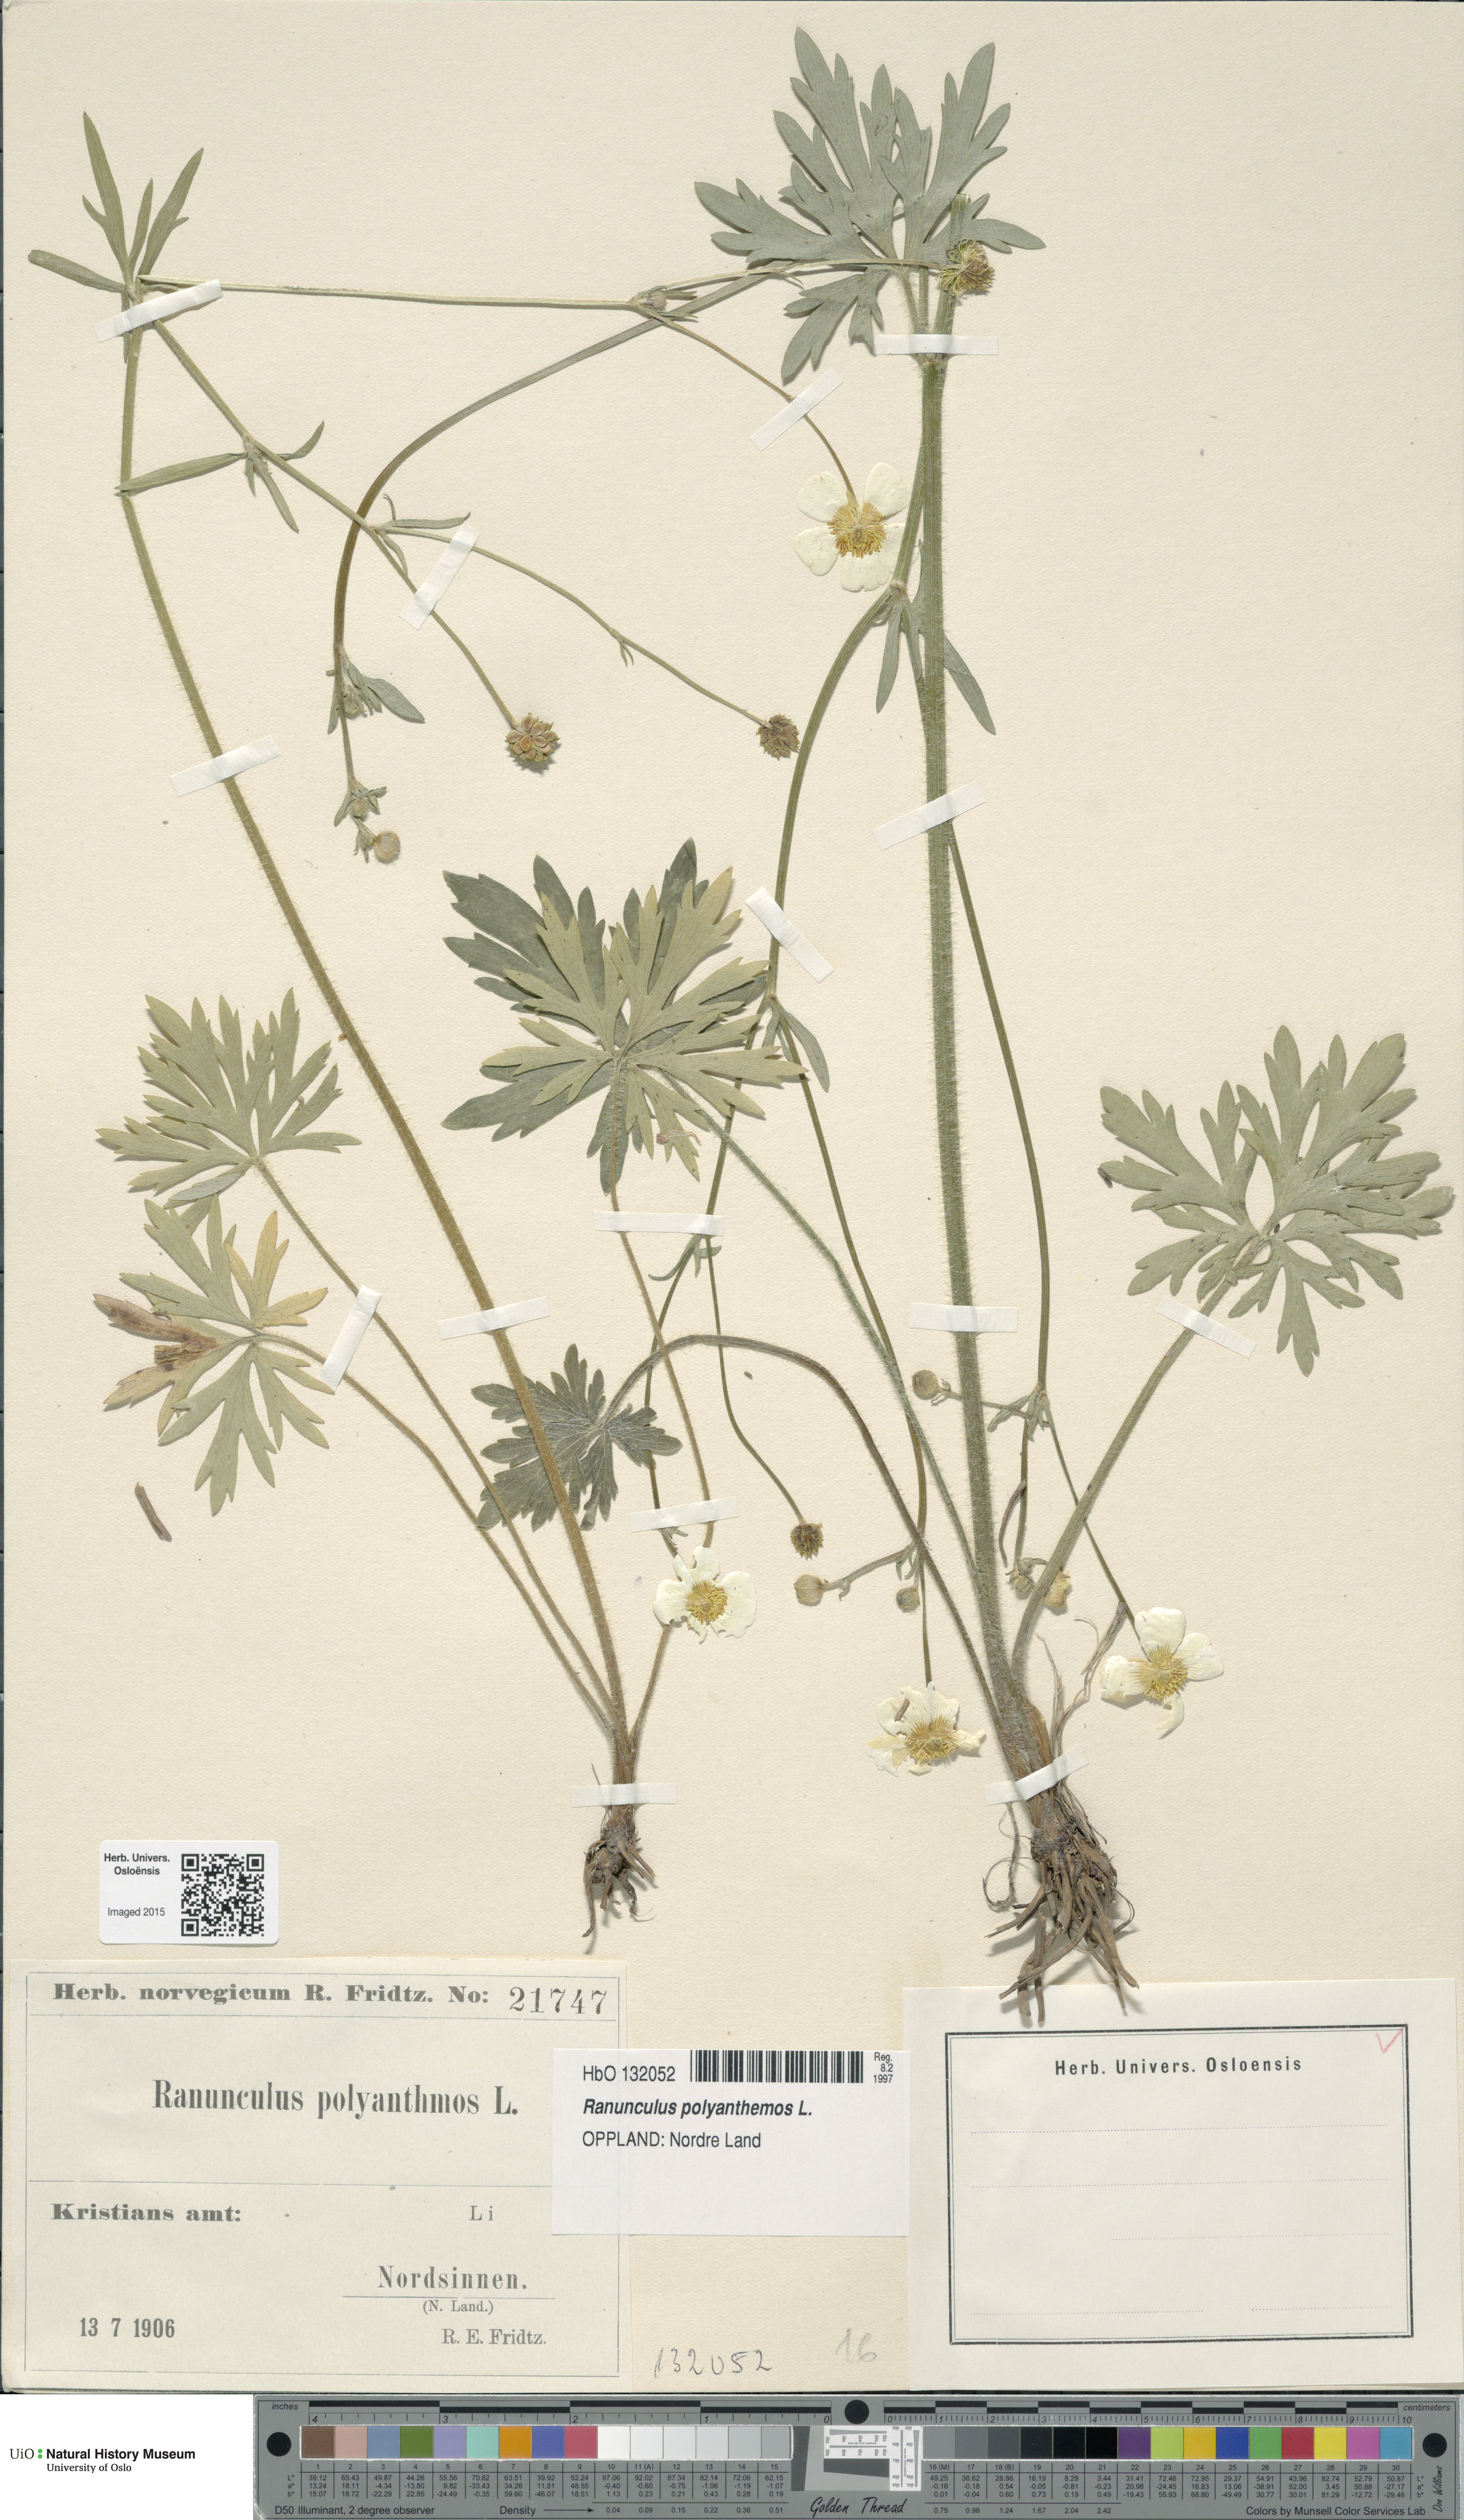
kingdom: Plantae
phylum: Tracheophyta
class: Magnoliopsida
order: Ranunculales
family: Ranunculaceae
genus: Ranunculus
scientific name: Ranunculus polyanthemos
